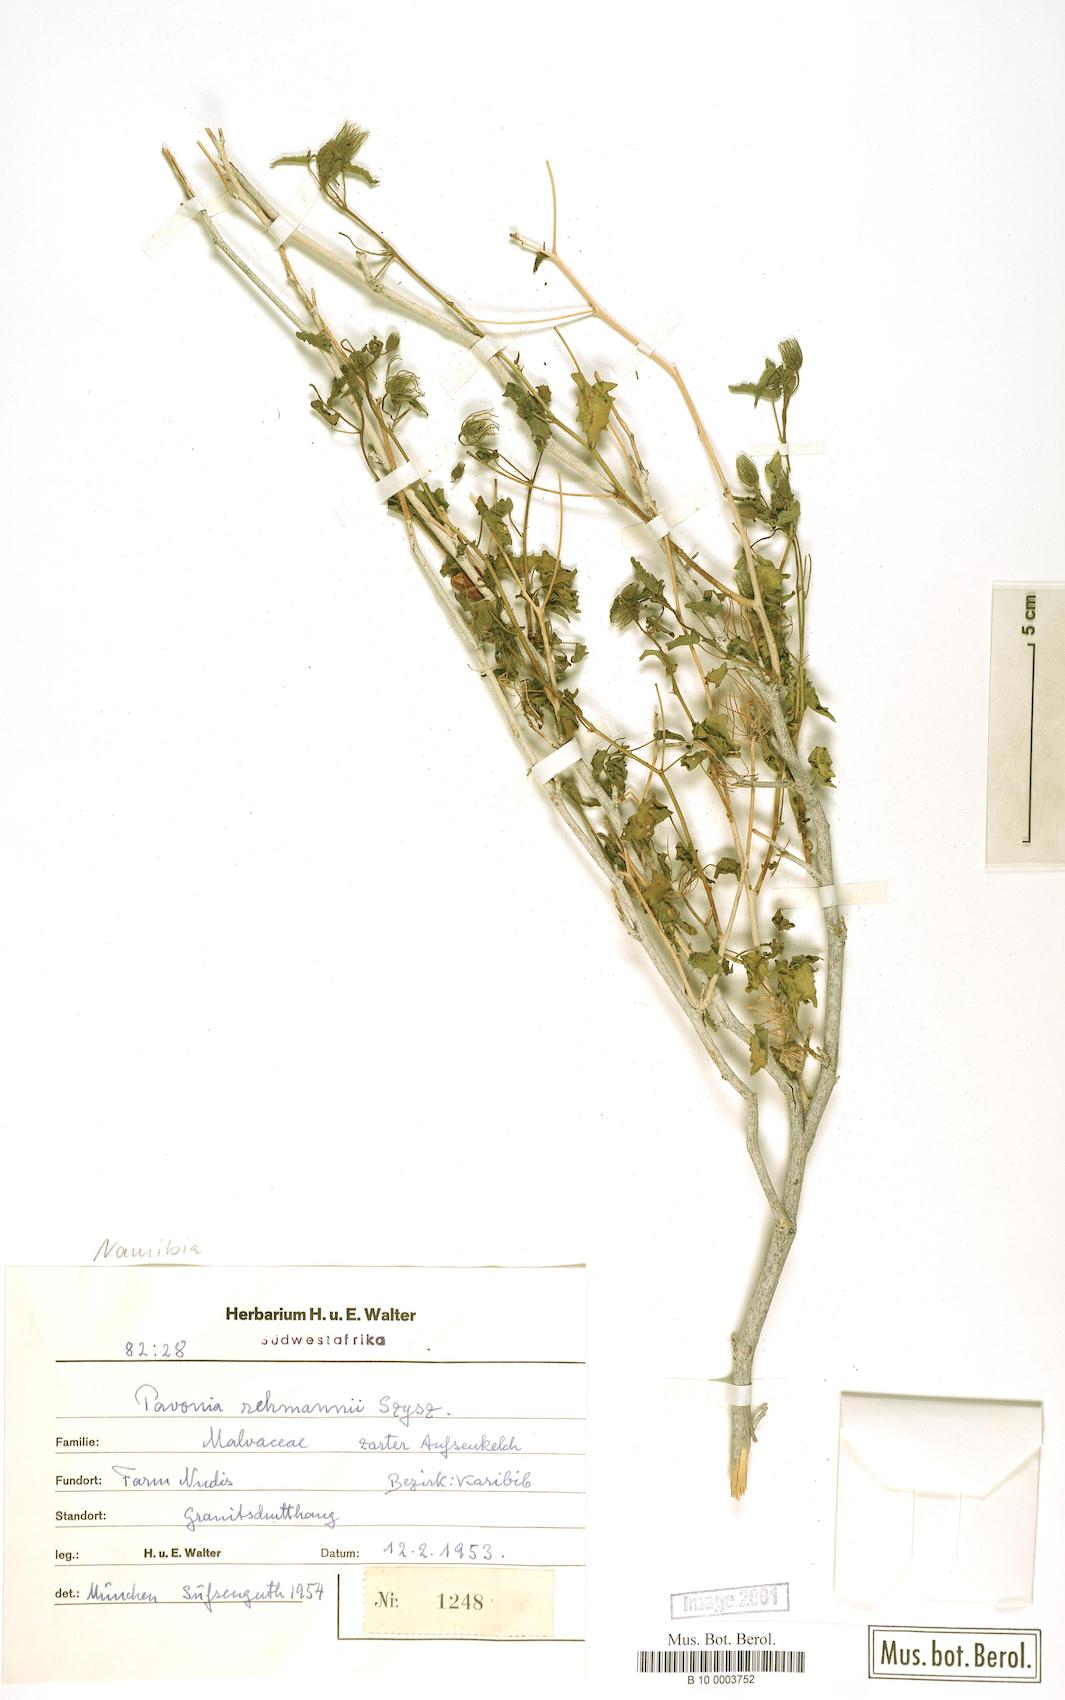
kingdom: Plantae
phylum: Tracheophyta
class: Magnoliopsida
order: Malvales
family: Malvaceae
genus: Pavonia
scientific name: Pavonia rehmannii
